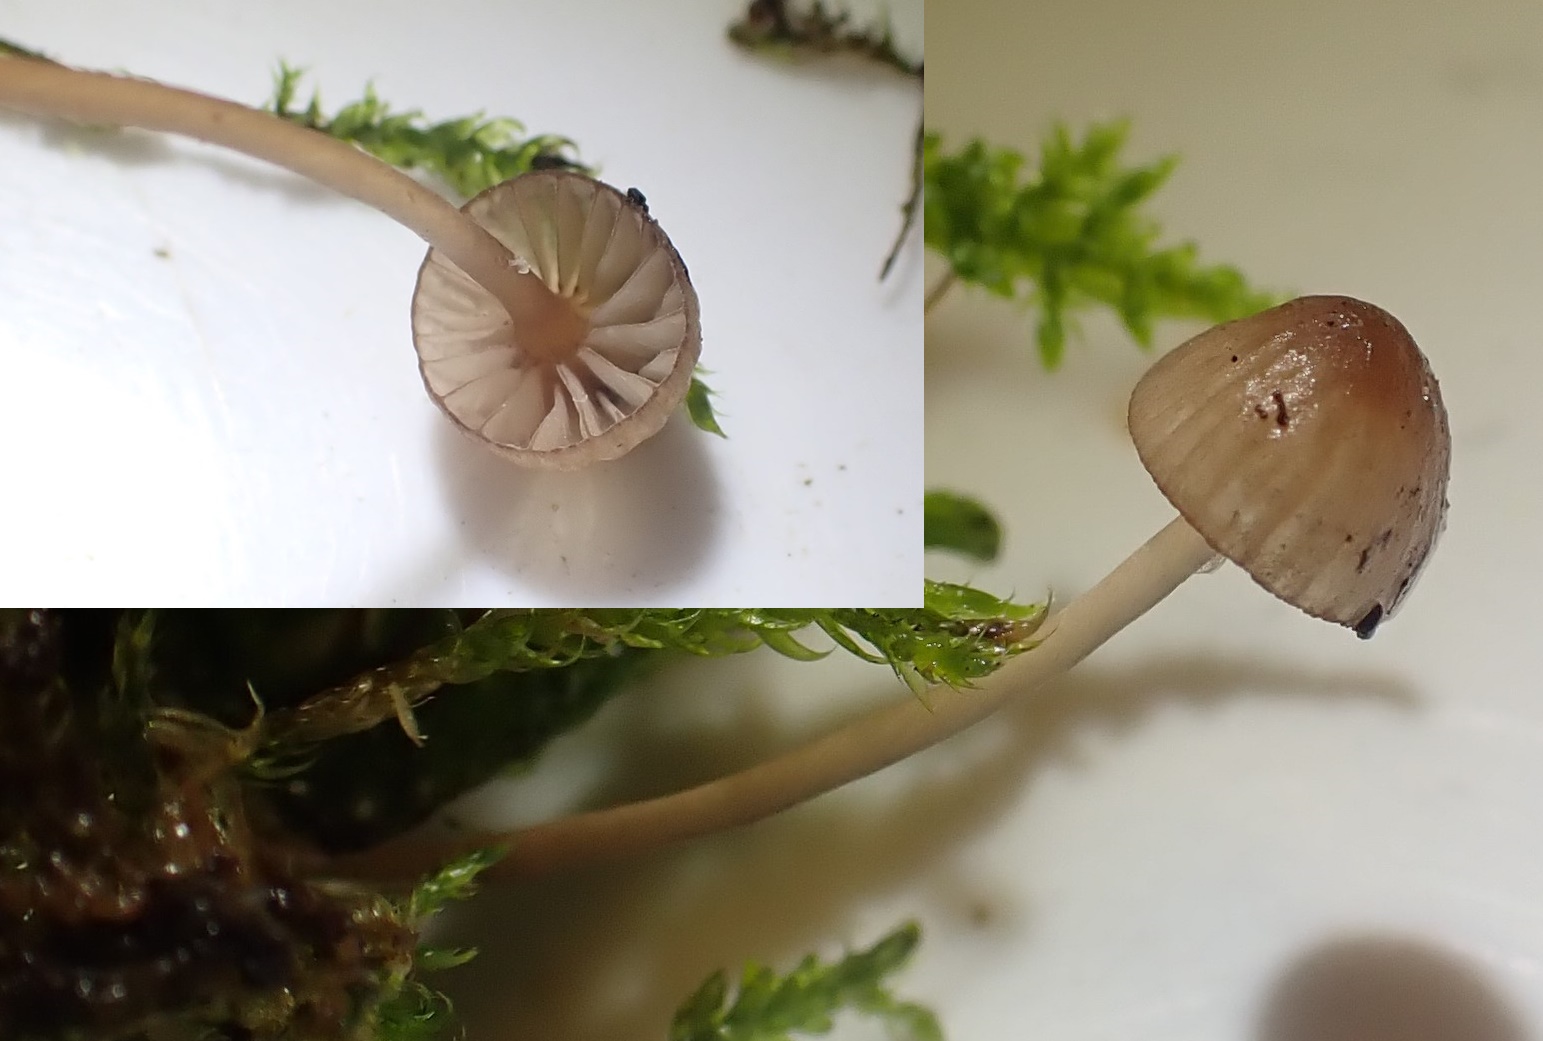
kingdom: Fungi
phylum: Basidiomycota
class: Agaricomycetes
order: Agaricales
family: Mycenaceae
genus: Mycena
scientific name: Mycena sanguinolenta
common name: rødmælket huesvamp
